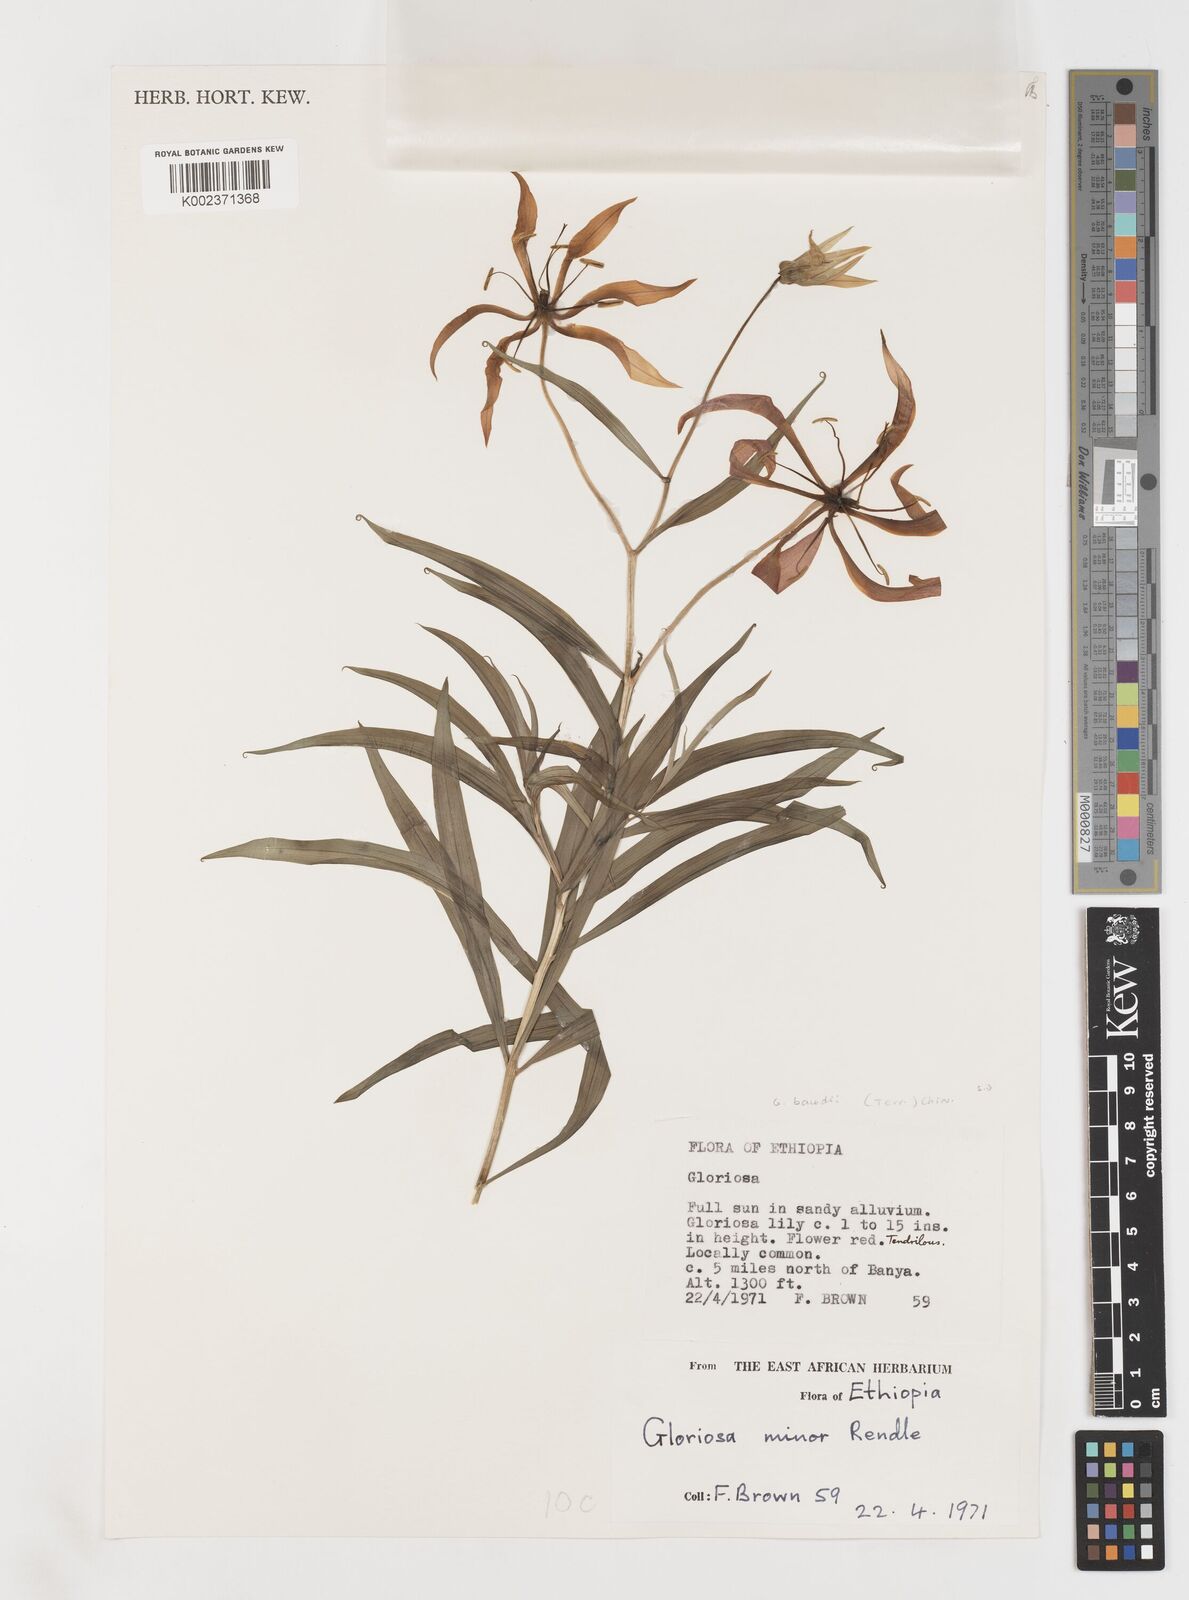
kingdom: Plantae
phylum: Tracheophyta
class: Liliopsida
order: Liliales
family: Colchicaceae
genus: Gloriosa
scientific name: Gloriosa baudii
